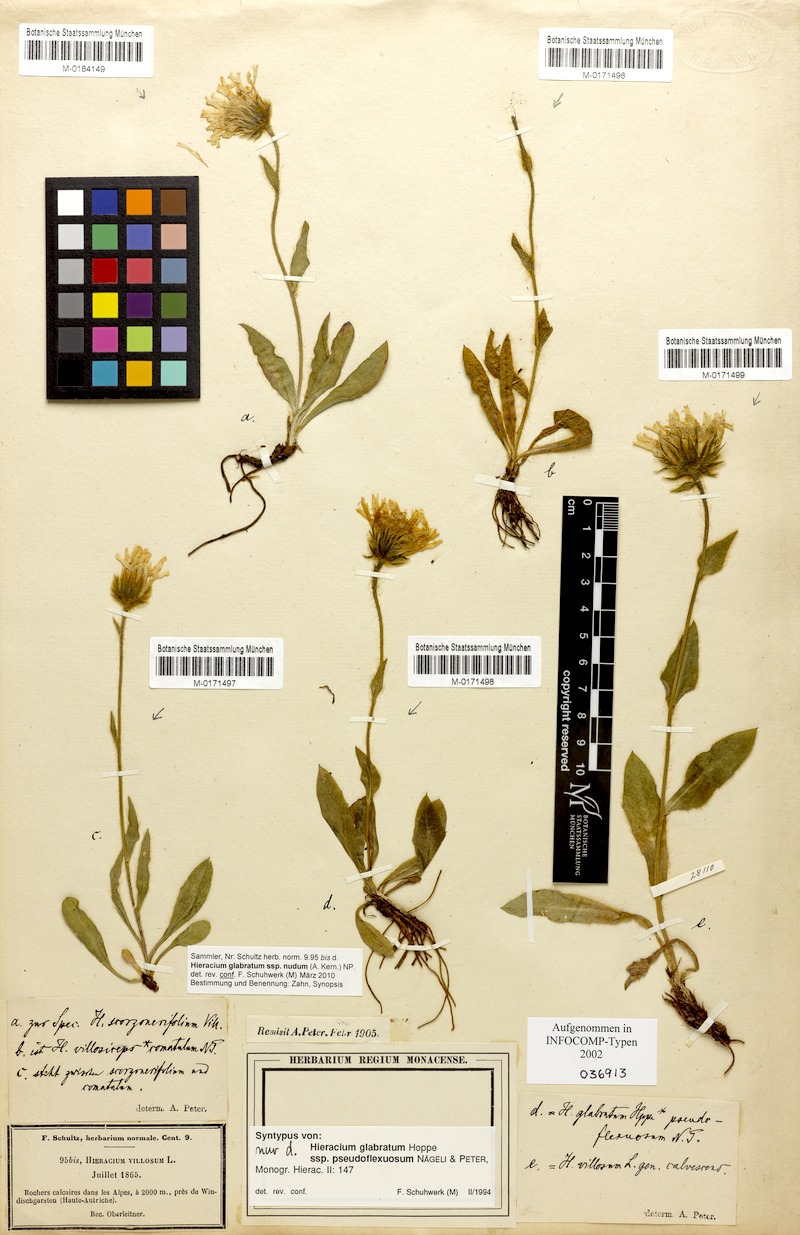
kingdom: Plantae
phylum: Tracheophyta
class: Magnoliopsida
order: Asterales
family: Asteraceae
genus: Hieracium
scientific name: Hieracium villosum
